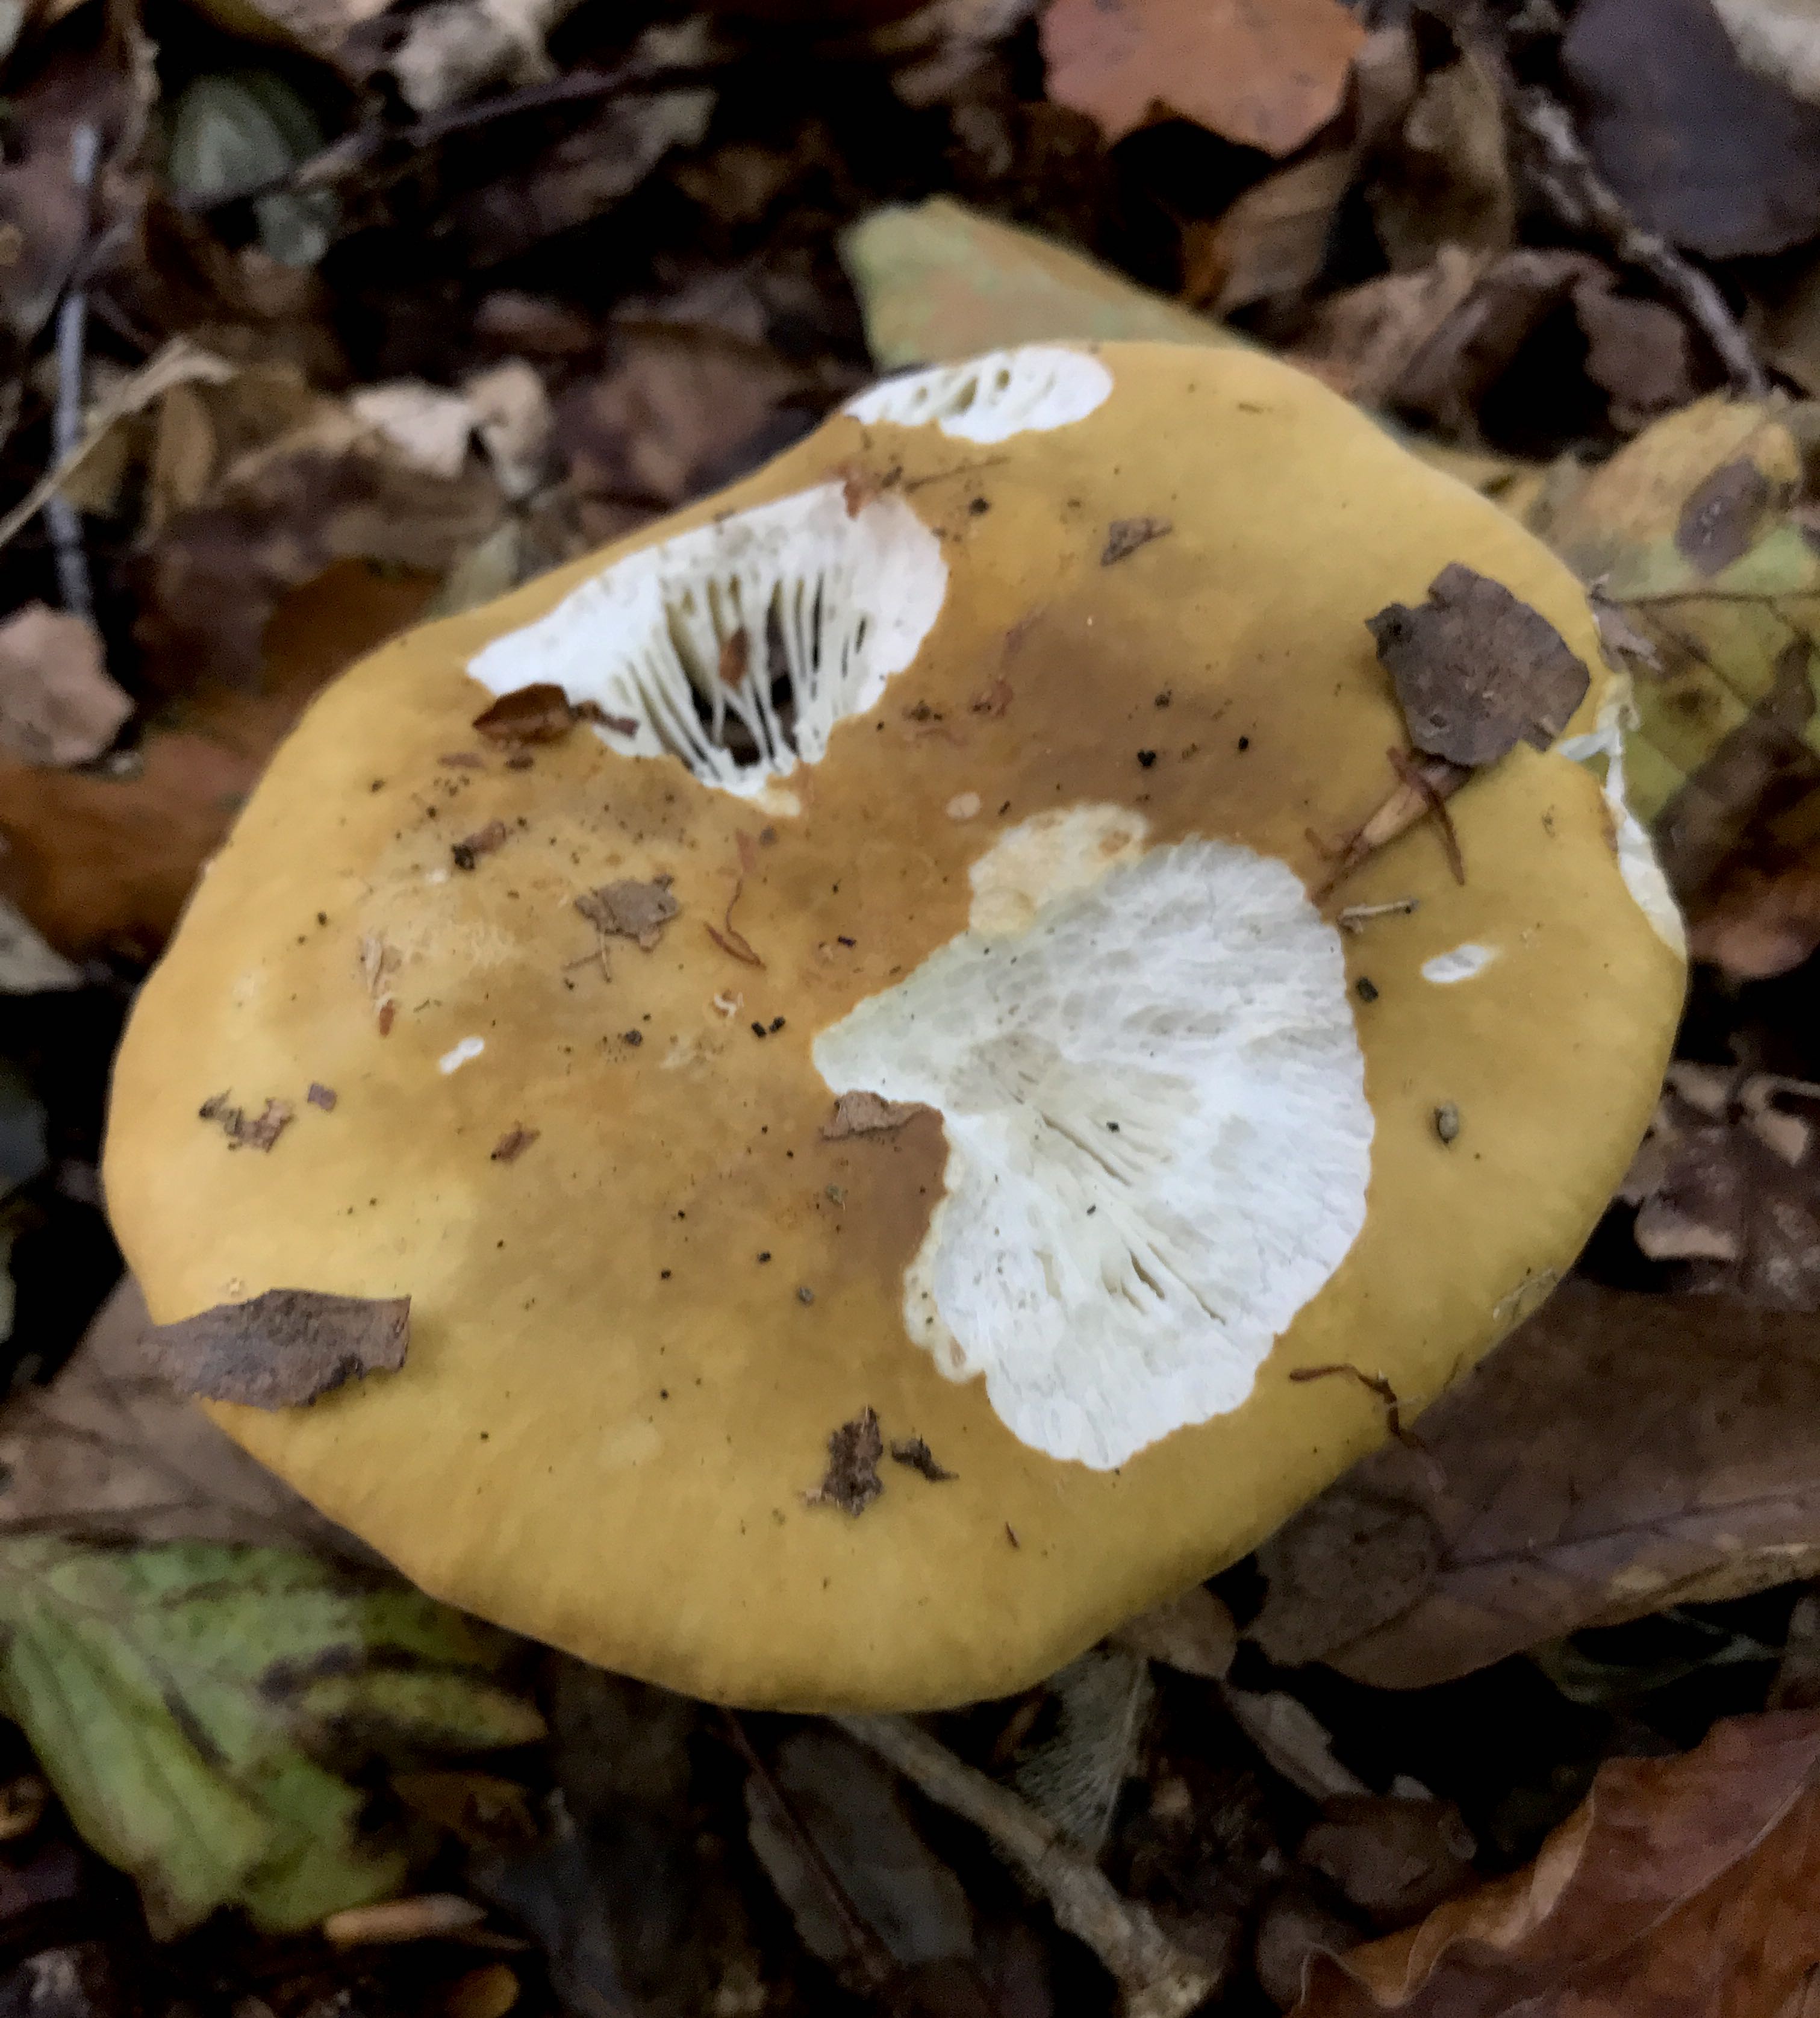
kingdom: Fungi
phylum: Basidiomycota
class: Agaricomycetes
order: Russulales
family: Russulaceae
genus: Russula
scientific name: Russula ochroleuca
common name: okkergul skørhat
